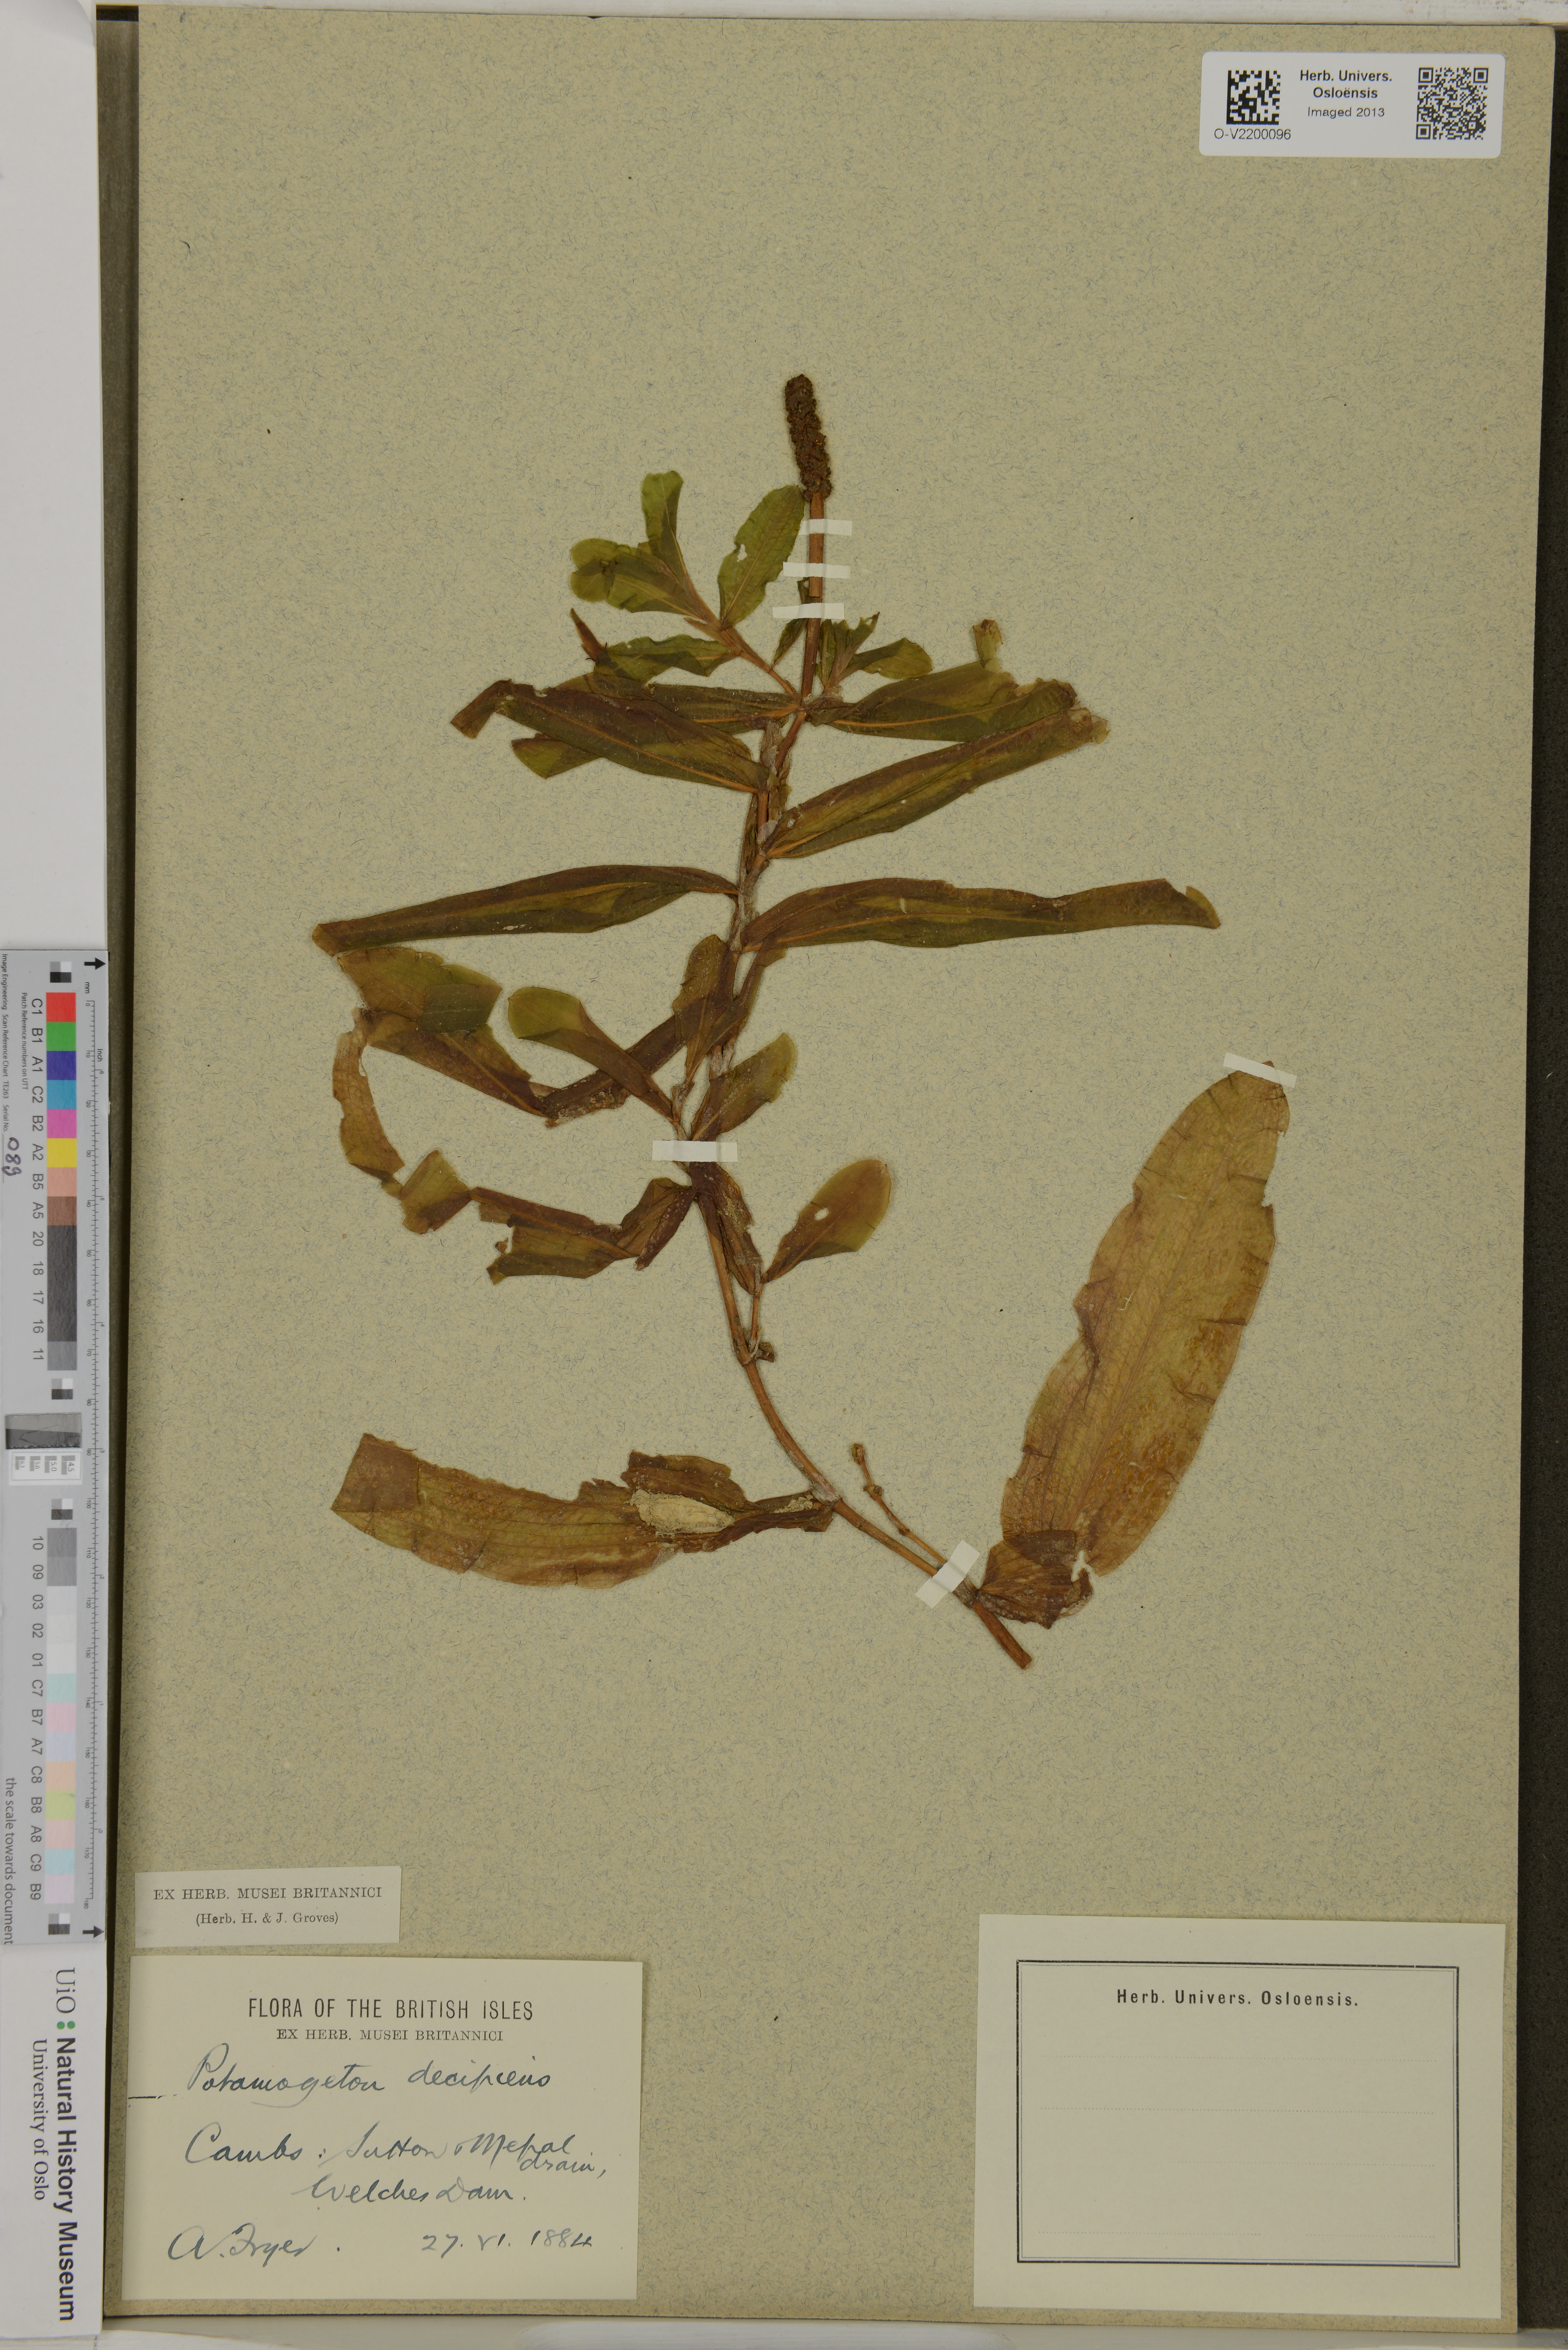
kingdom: Plantae
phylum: Tracheophyta
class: Liliopsida
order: Alismatales
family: Potamogetonaceae
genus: Potamogeton
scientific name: Potamogeton
